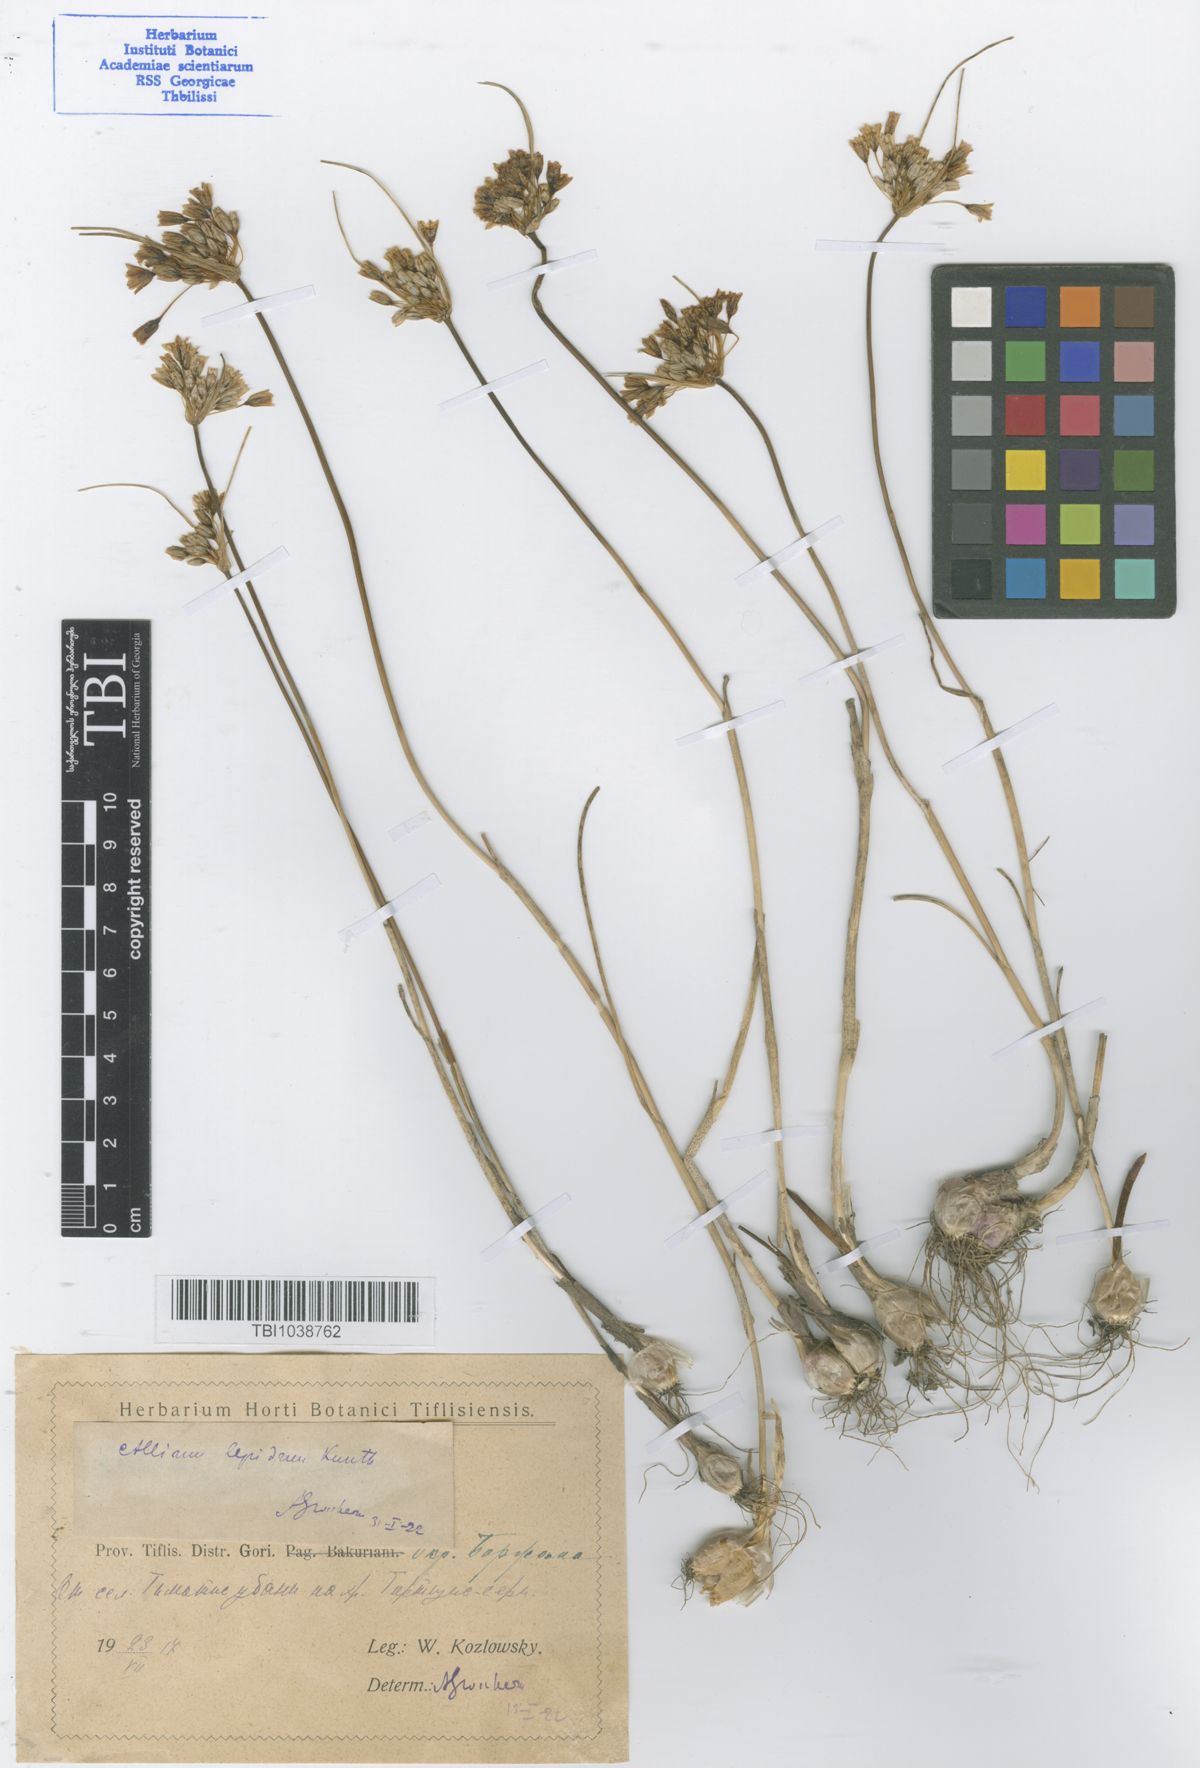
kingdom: Plantae
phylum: Tracheophyta
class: Liliopsida
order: Asparagales
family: Amaryllidaceae
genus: Allium
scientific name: Allium kunthianum
